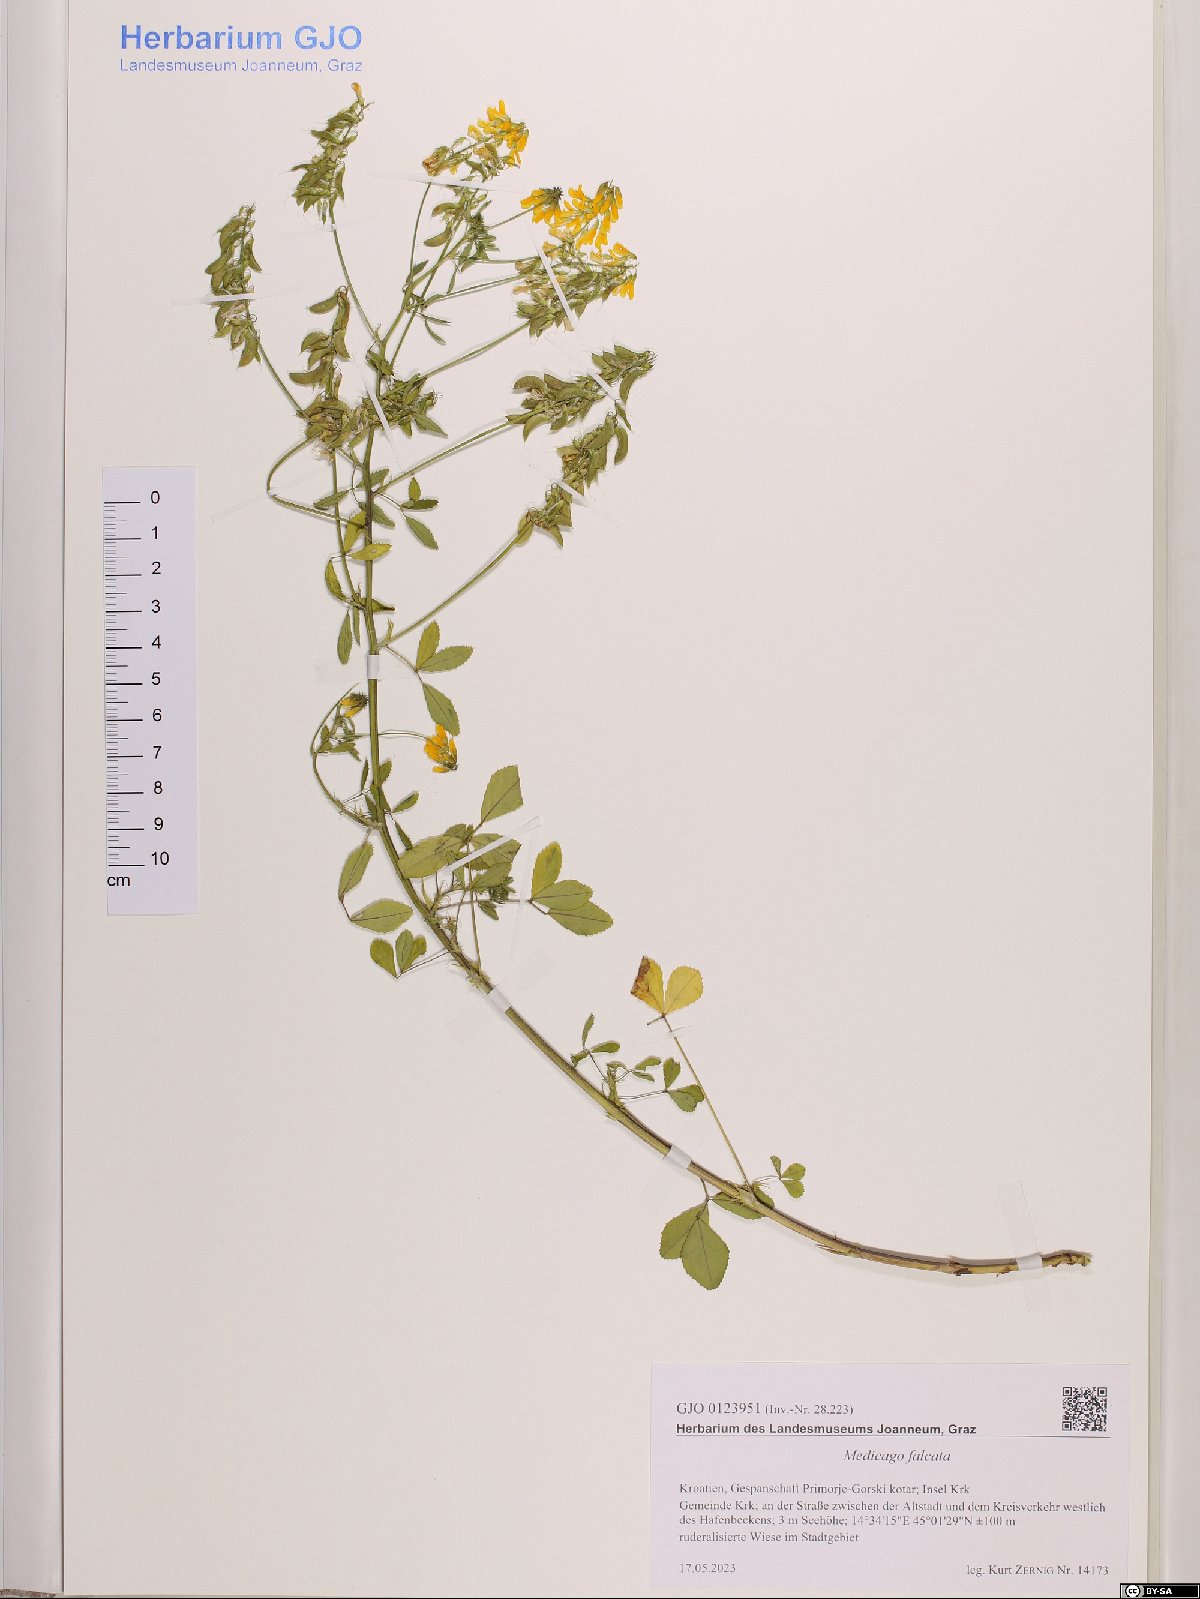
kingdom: Plantae
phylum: Tracheophyta
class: Magnoliopsida
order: Fabales
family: Fabaceae
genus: Medicago
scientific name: Medicago falcata
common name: Sickle medick
